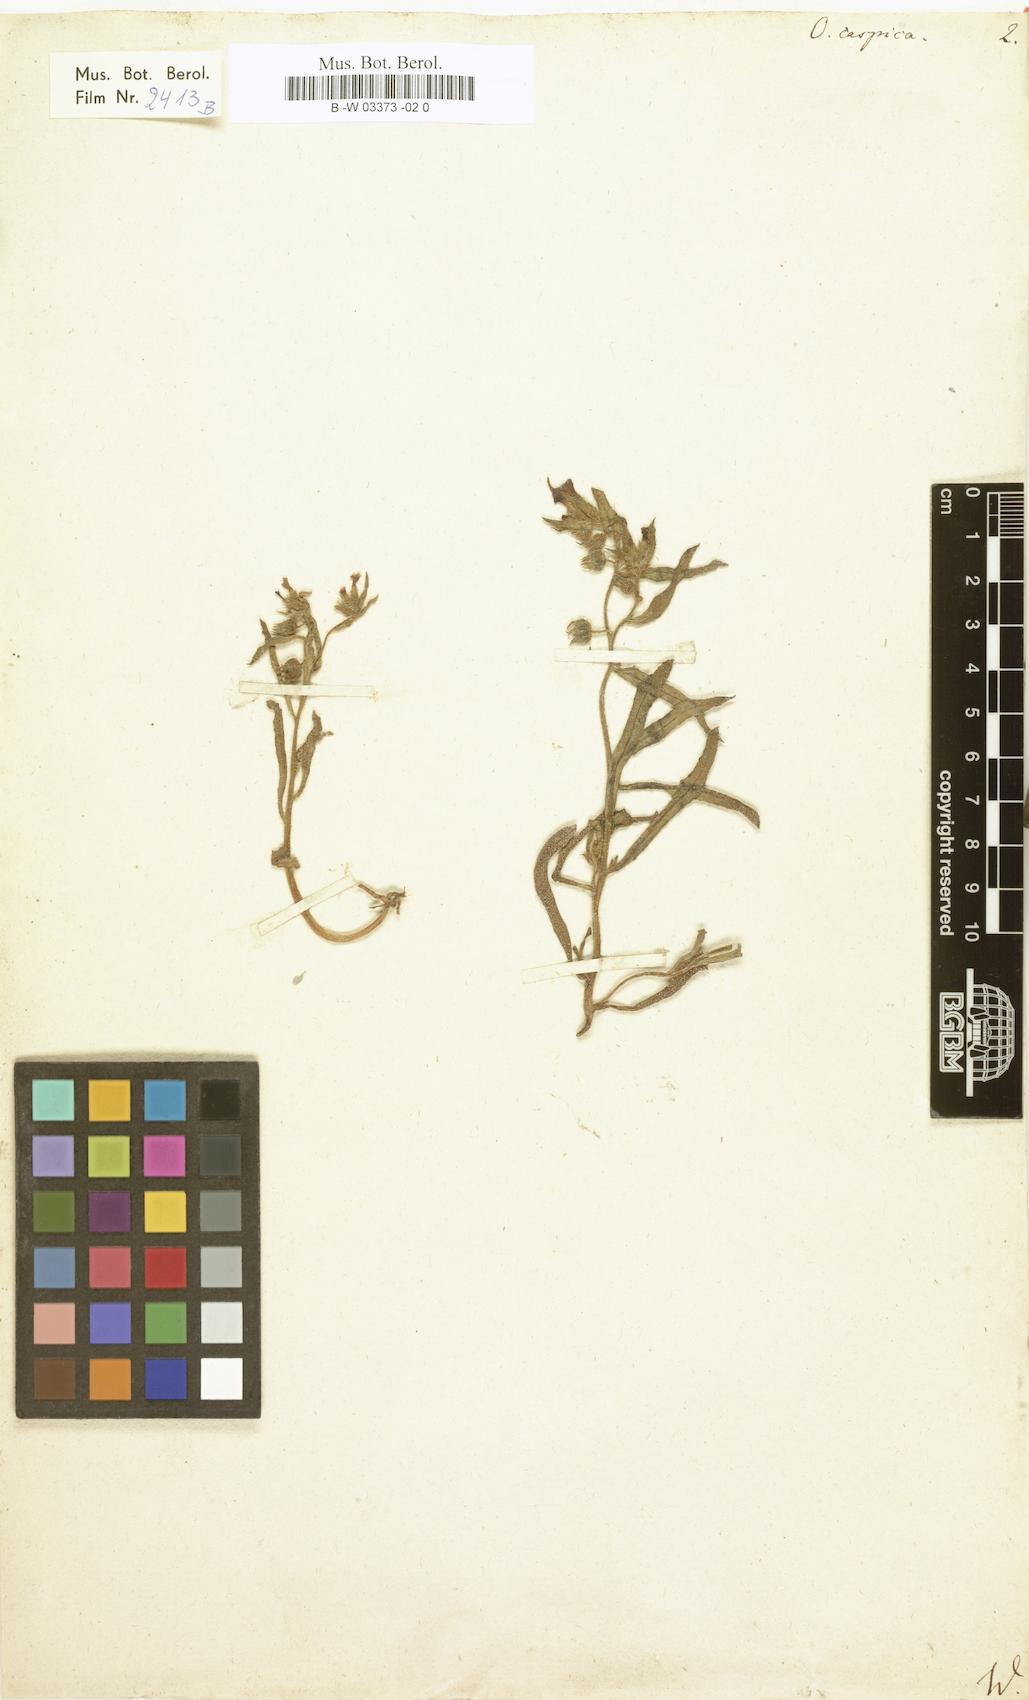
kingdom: Plantae
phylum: Tracheophyta
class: Magnoliopsida
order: Boraginales
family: Boraginaceae
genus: Nonea
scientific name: Nonea caspica
